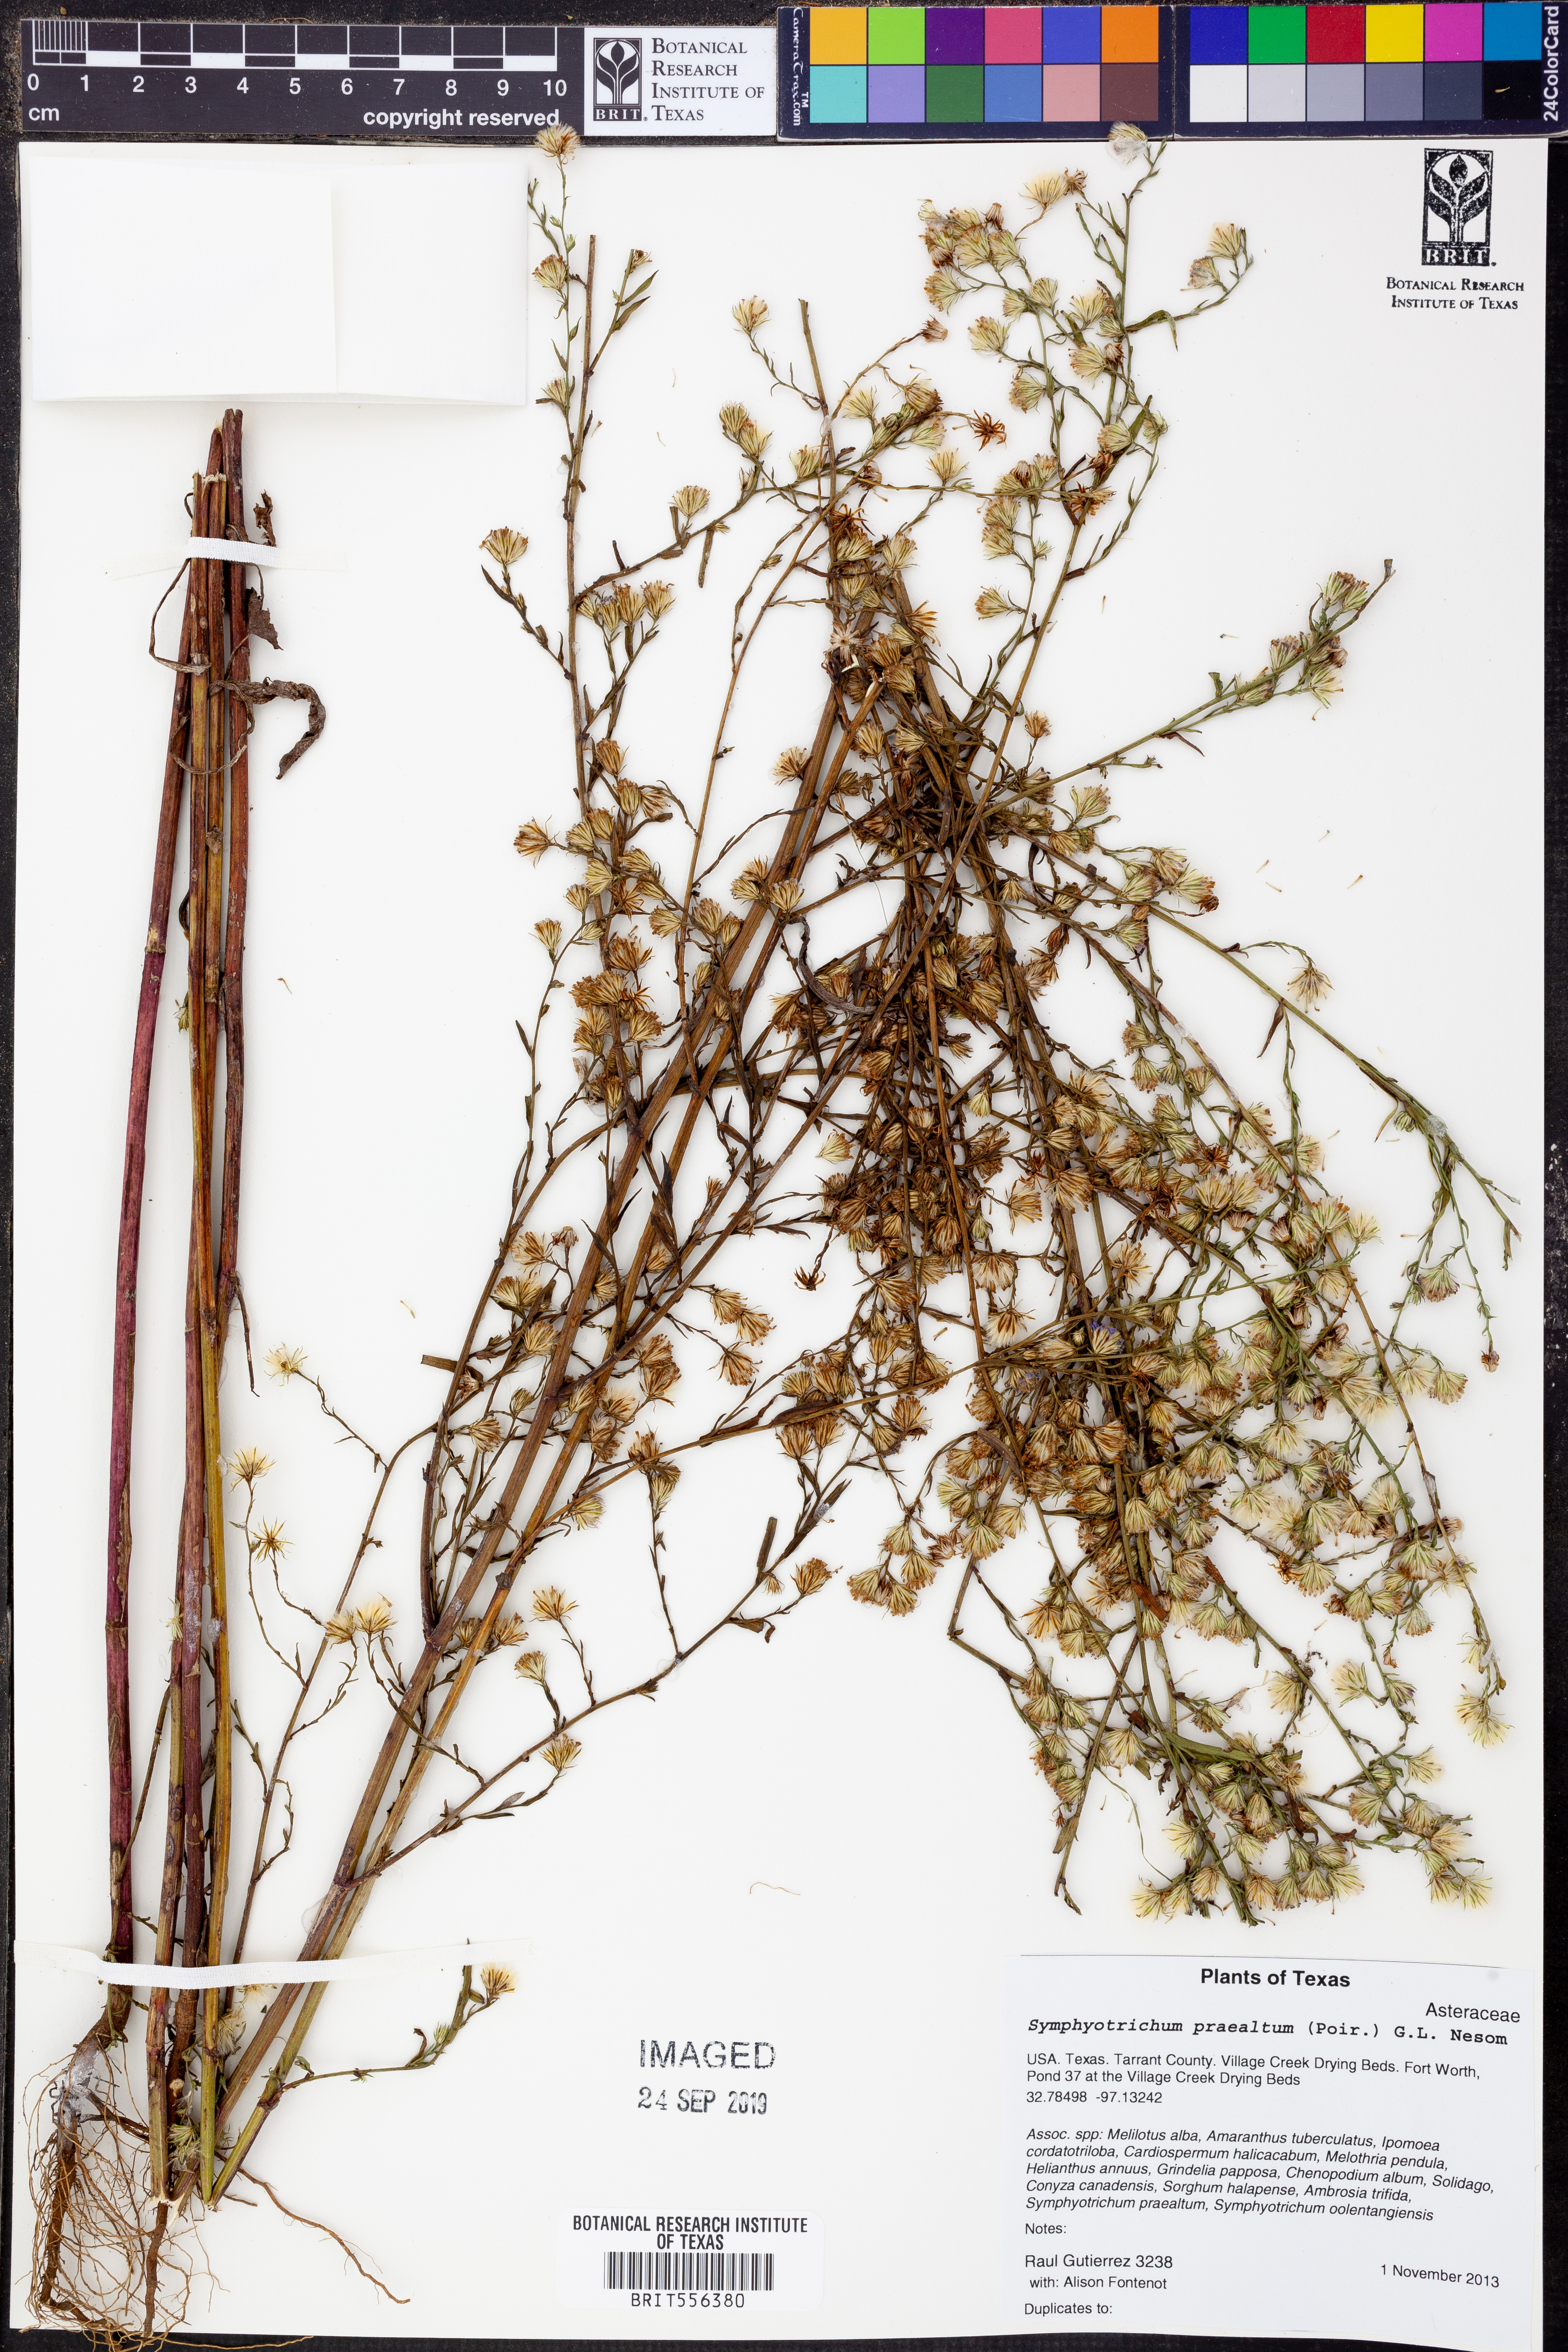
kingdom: Plantae
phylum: Tracheophyta
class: Magnoliopsida
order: Asterales
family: Asteraceae
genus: Symphyotrichum
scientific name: Symphyotrichum praealtum
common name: Willow aster
